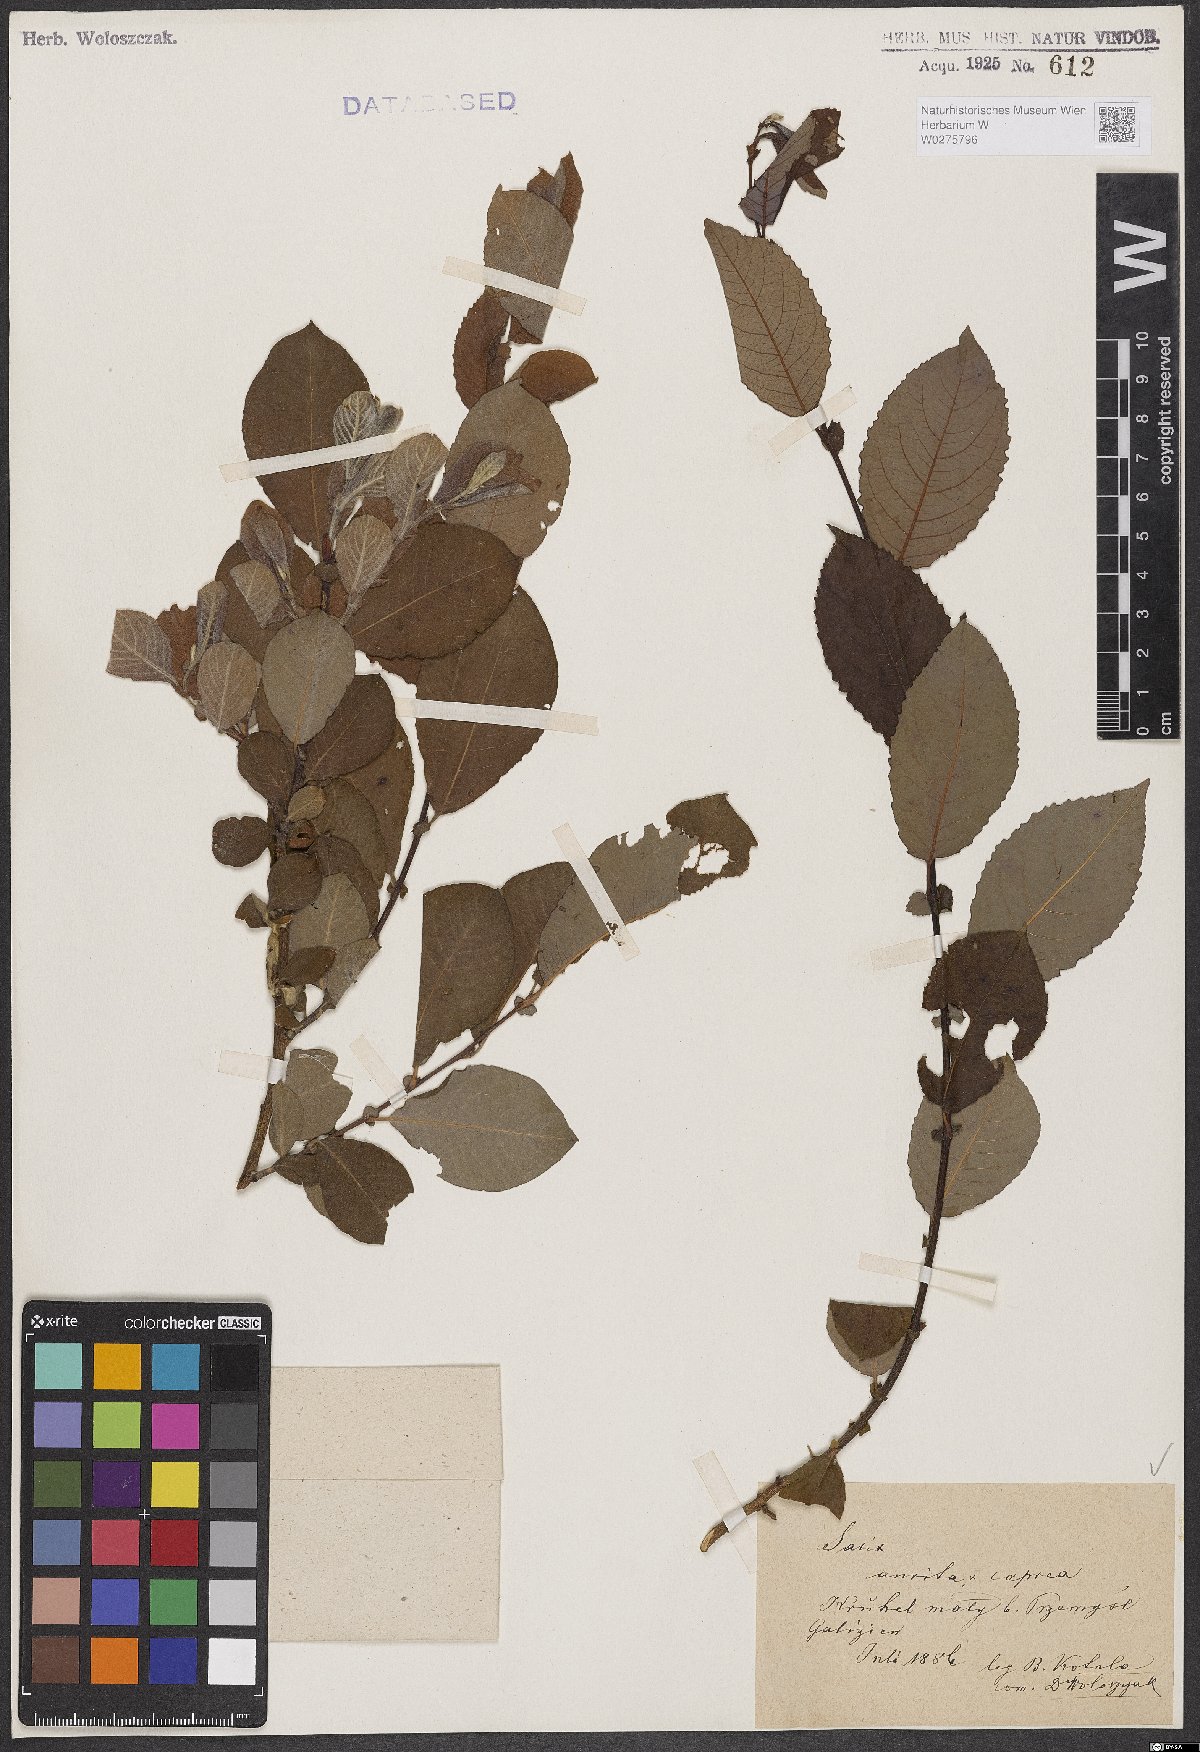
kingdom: Plantae
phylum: Tracheophyta
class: Magnoliopsida
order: Malpighiales
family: Salicaceae
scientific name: Salicaceae
